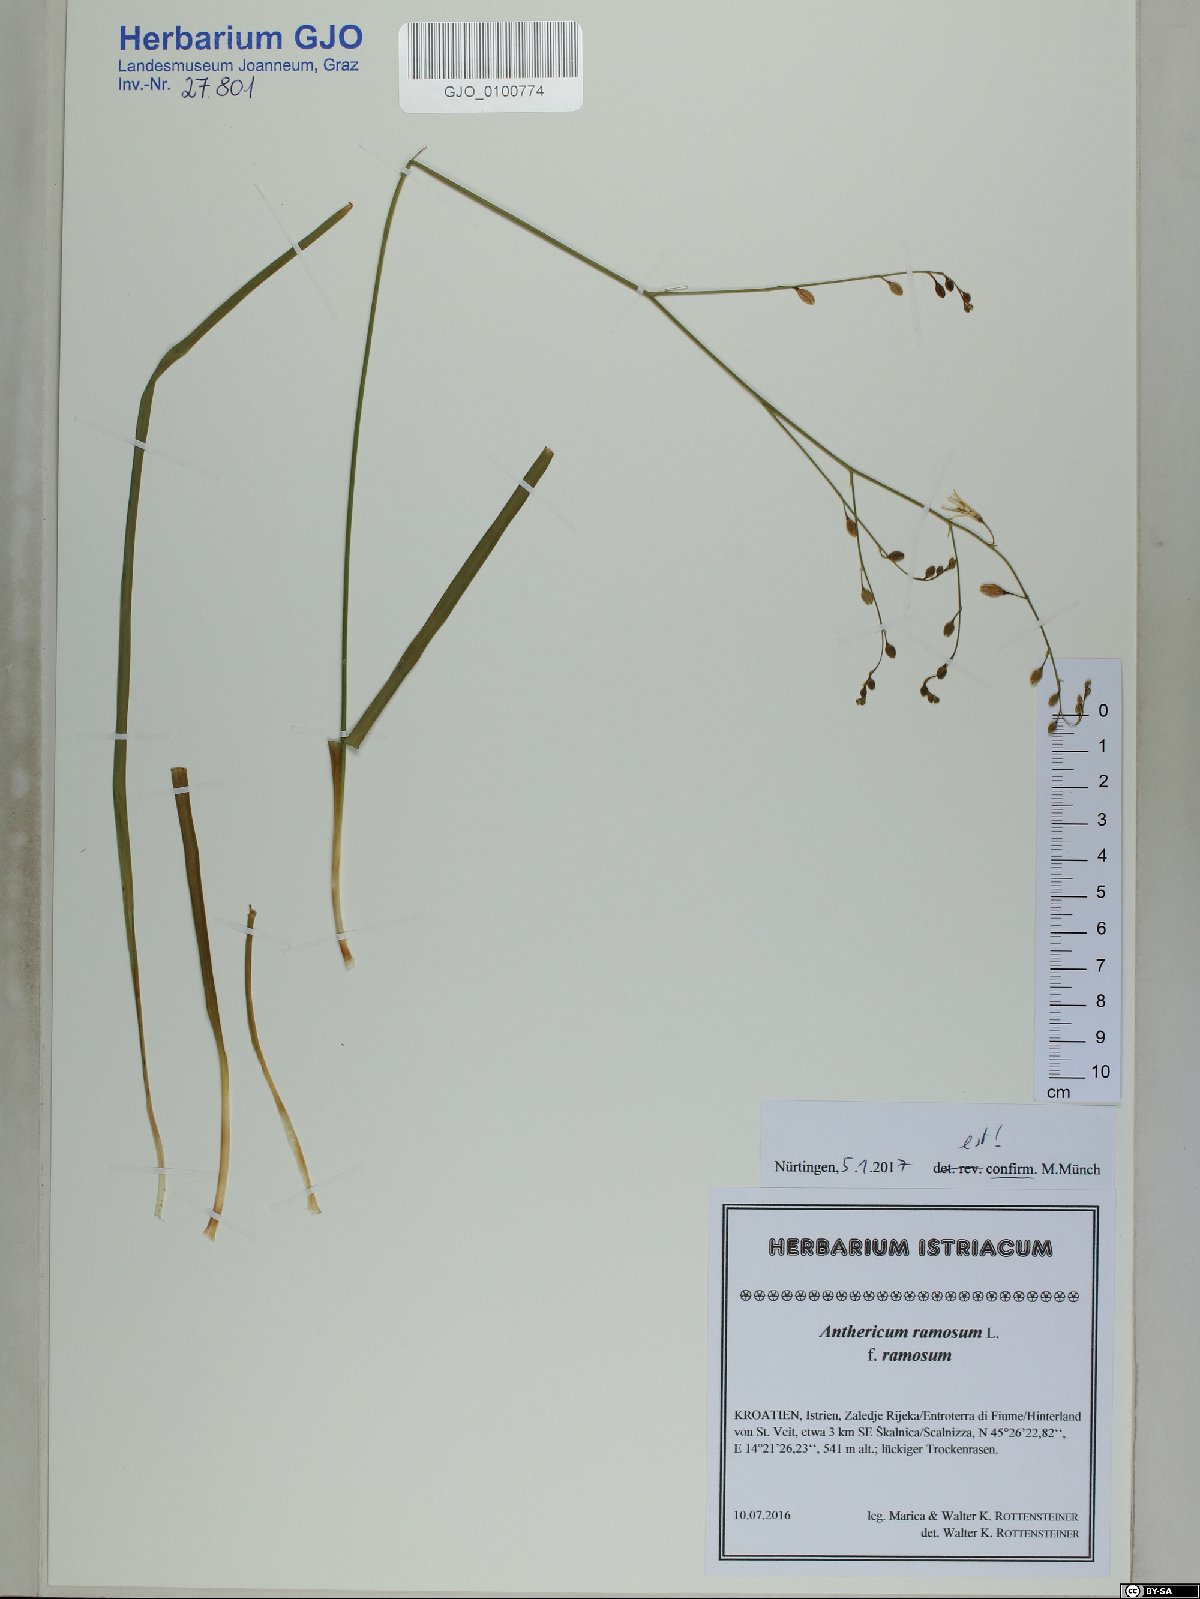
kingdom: Plantae
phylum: Tracheophyta
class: Liliopsida
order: Asparagales
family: Asparagaceae
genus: Anthericum
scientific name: Anthericum ramosum
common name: Branched st. bernard's-lily
